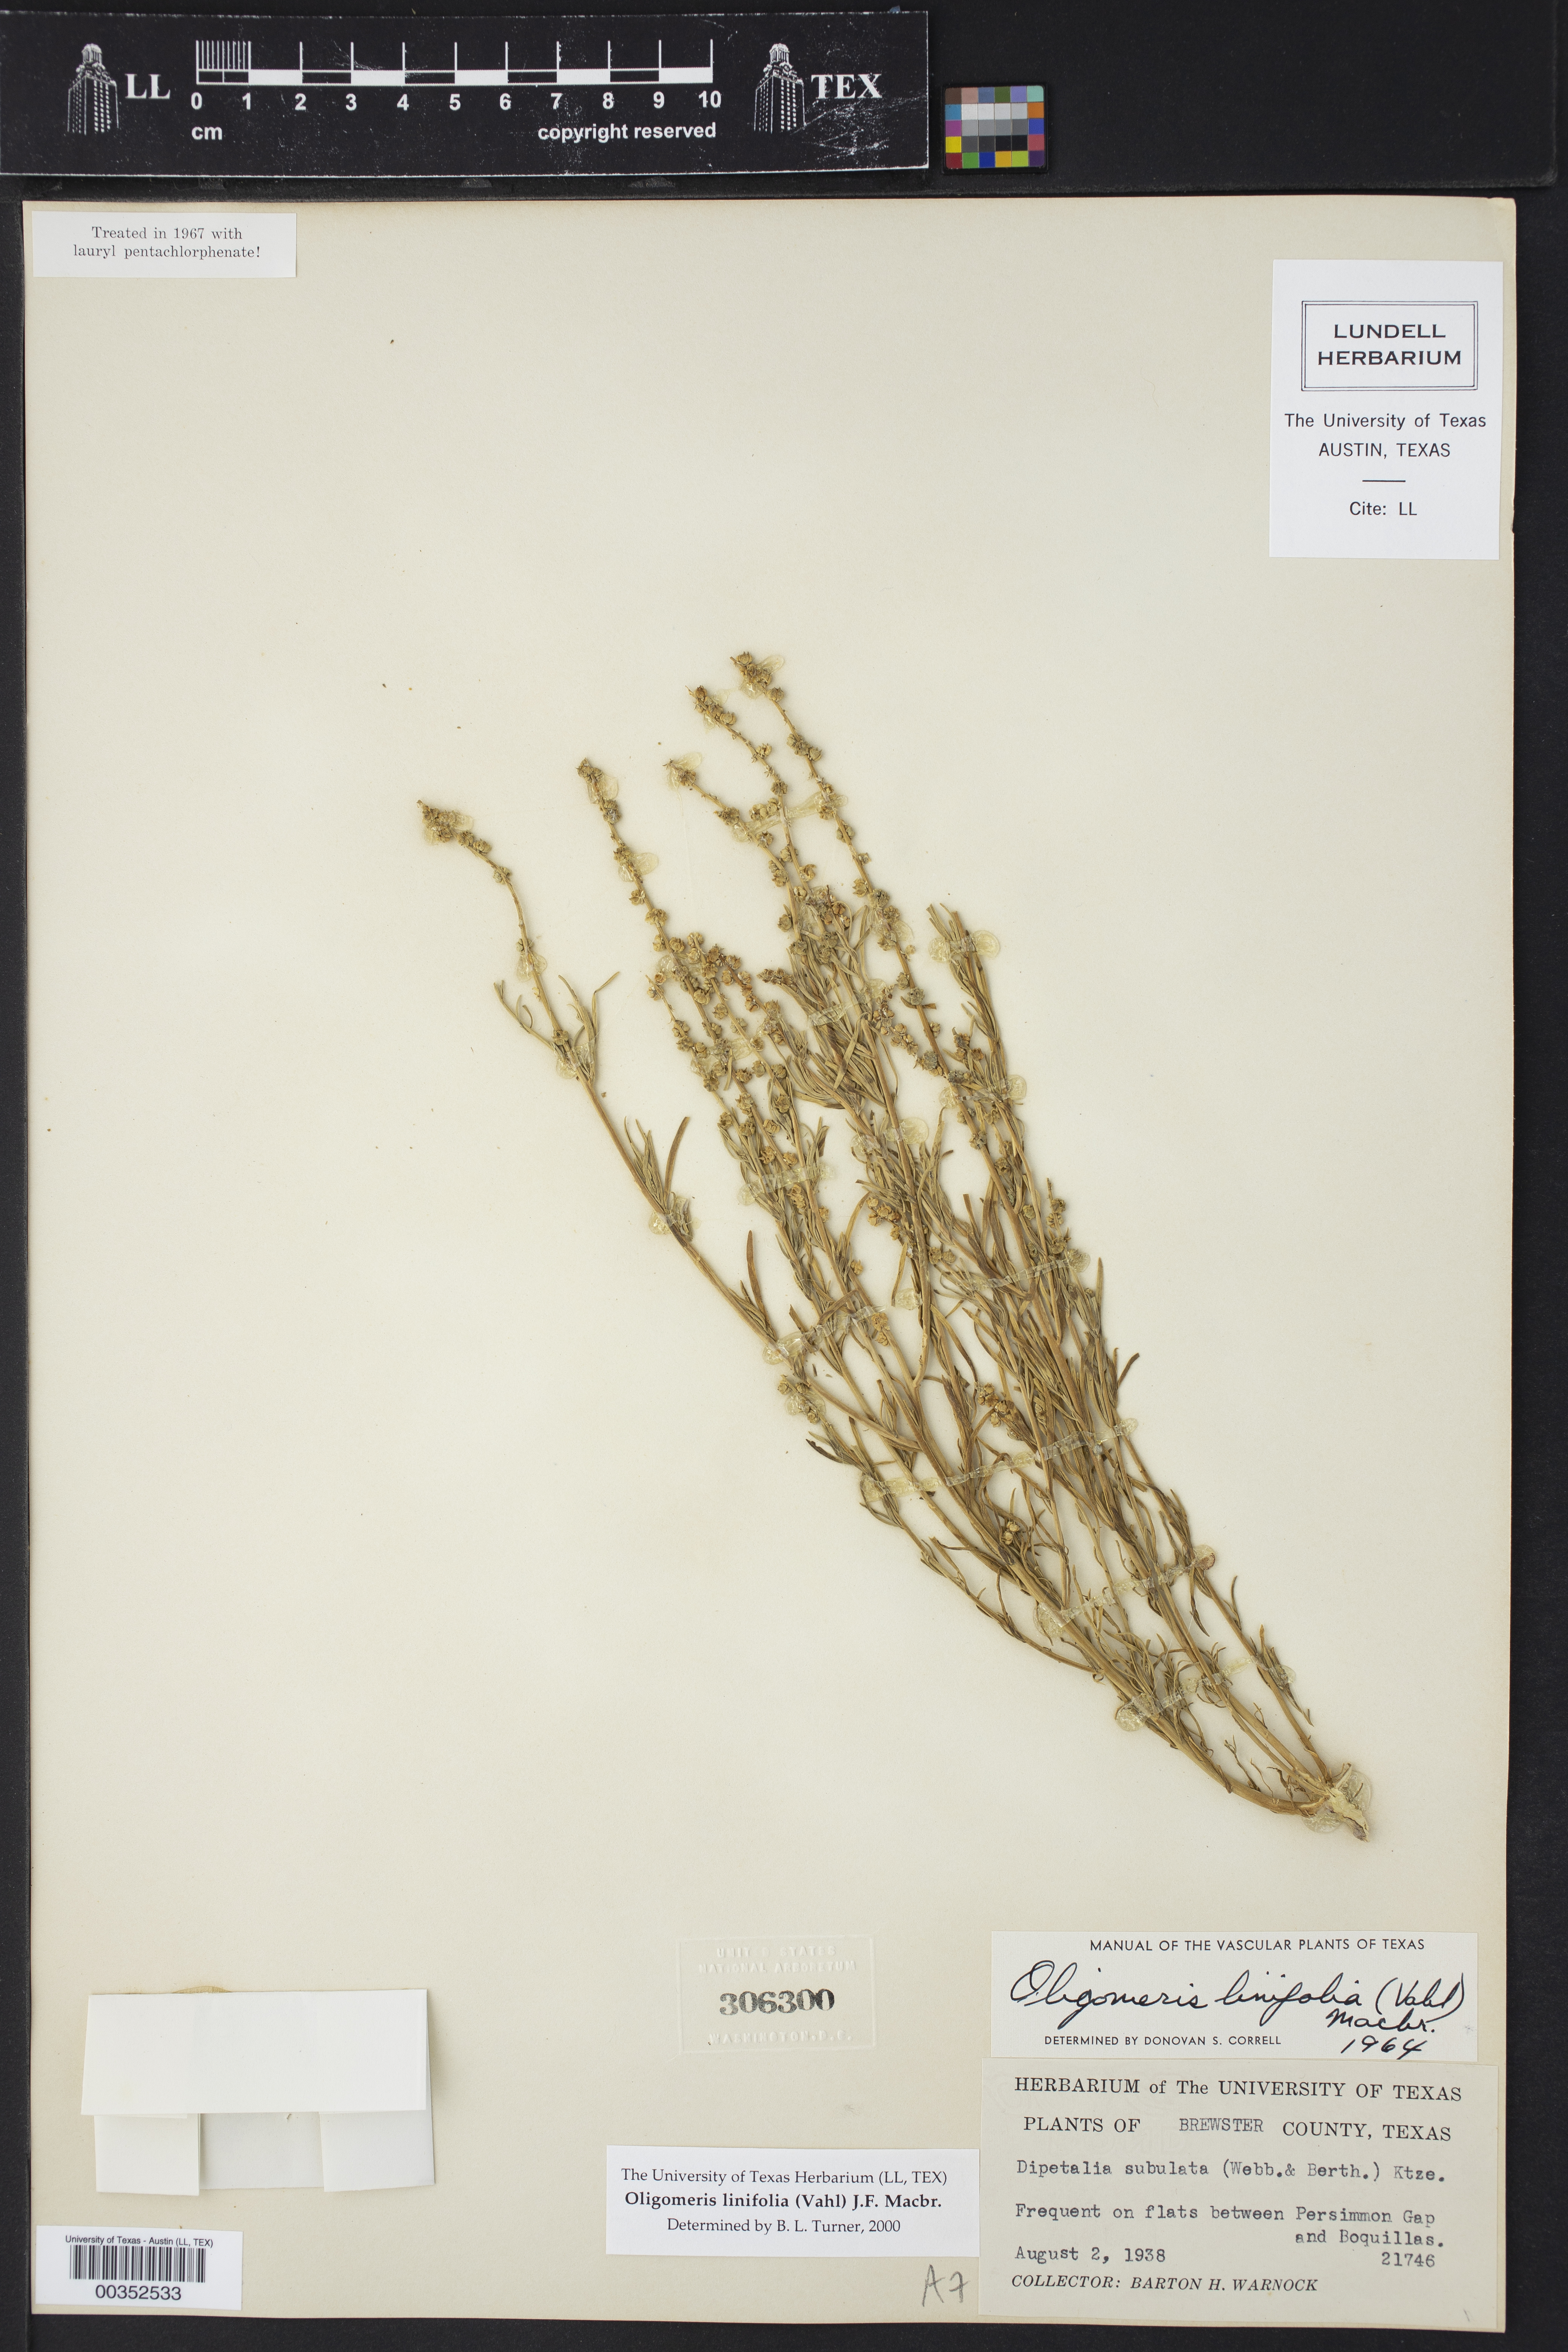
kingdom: Plantae
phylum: Tracheophyta
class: Magnoliopsida
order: Brassicales
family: Resedaceae
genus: Oligomeris
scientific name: Oligomeris linifolia
